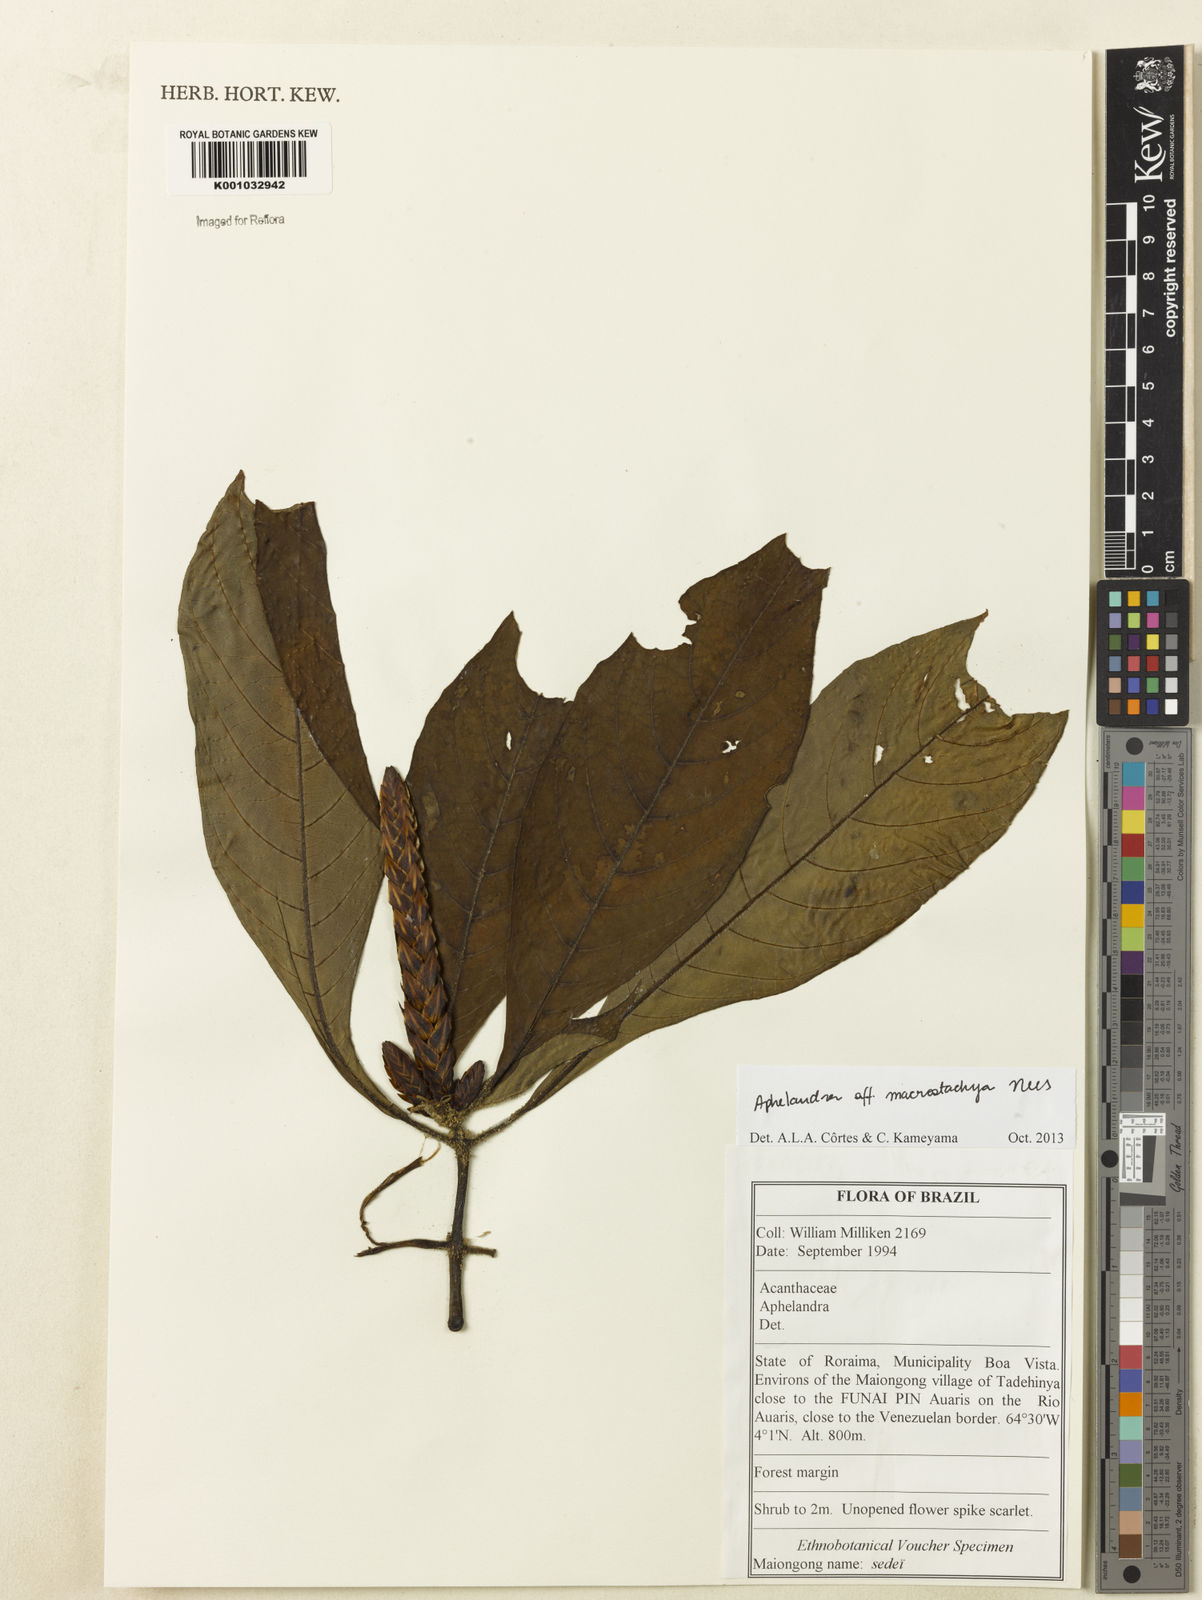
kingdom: Plantae
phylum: Tracheophyta
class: Magnoliopsida
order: Lamiales
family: Acanthaceae
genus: Aphelandra
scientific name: Aphelandra macrostachya
